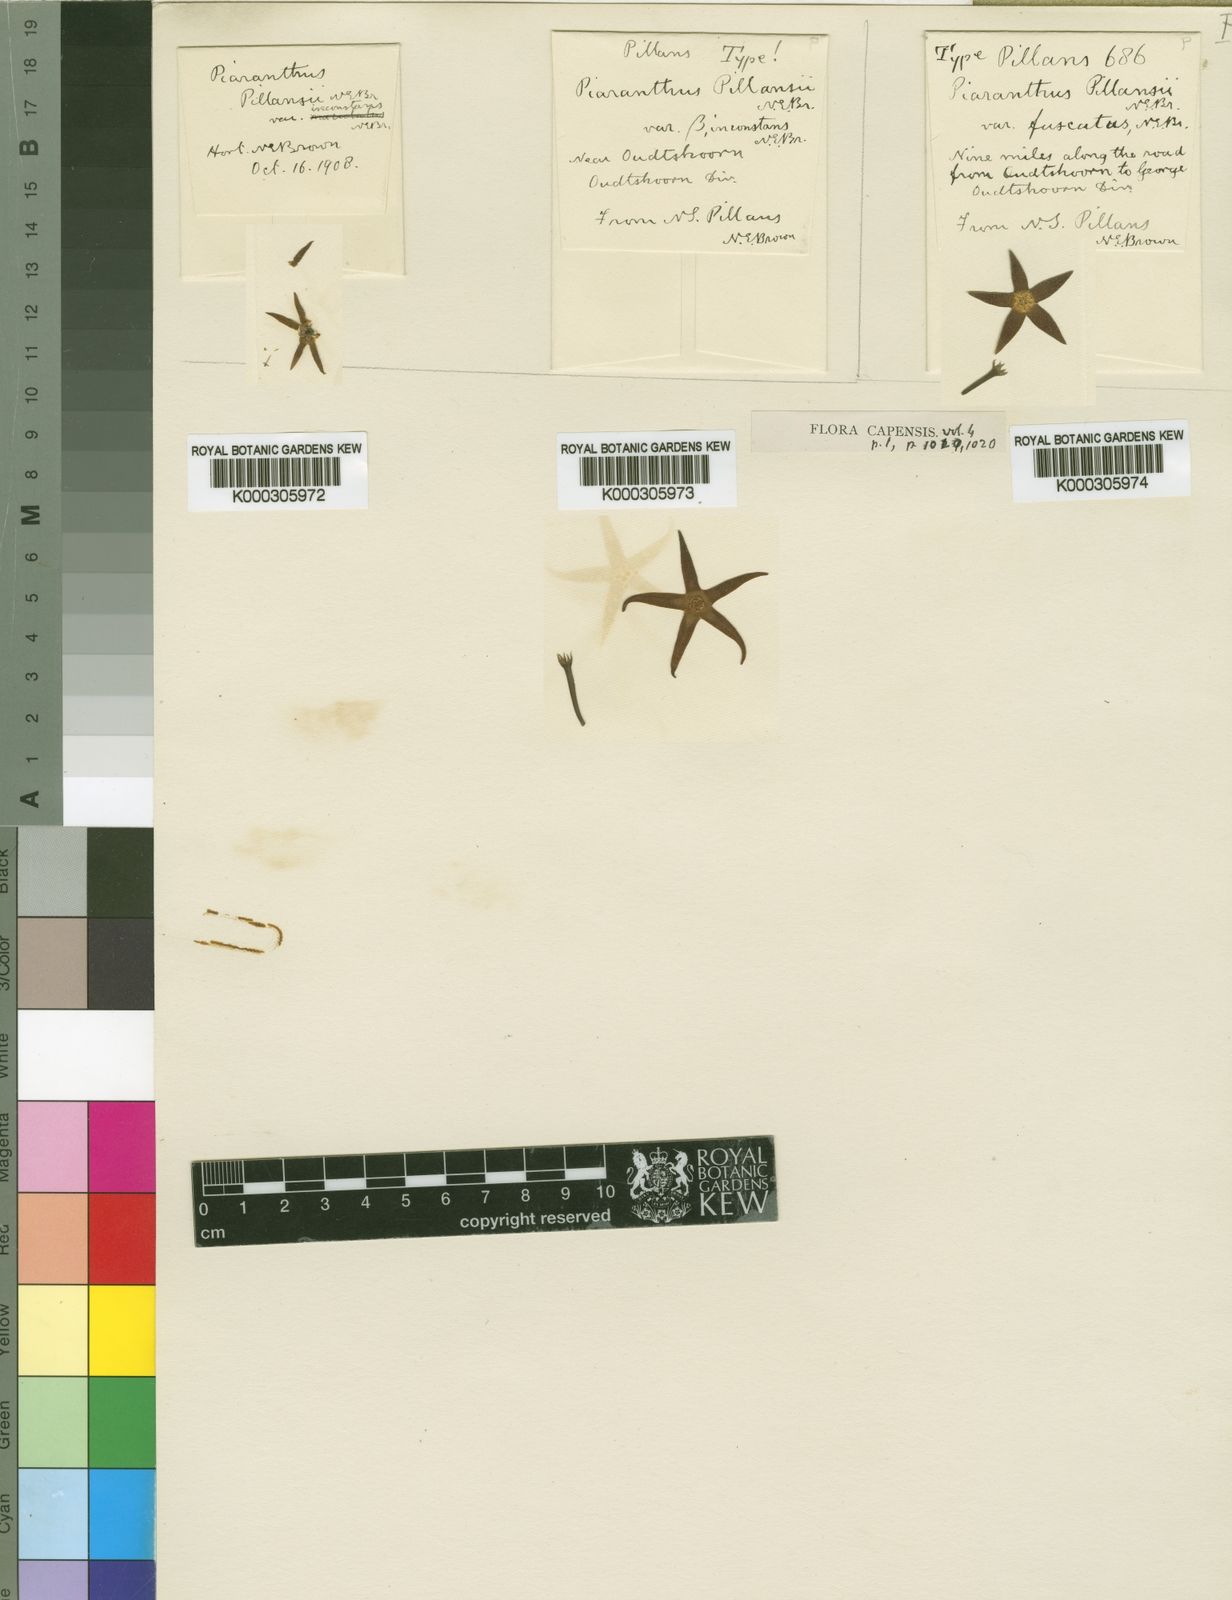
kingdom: Plantae
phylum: Tracheophyta
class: Magnoliopsida
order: Gentianales
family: Apocynaceae
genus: Ceropegia
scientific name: Ceropegia geminata
